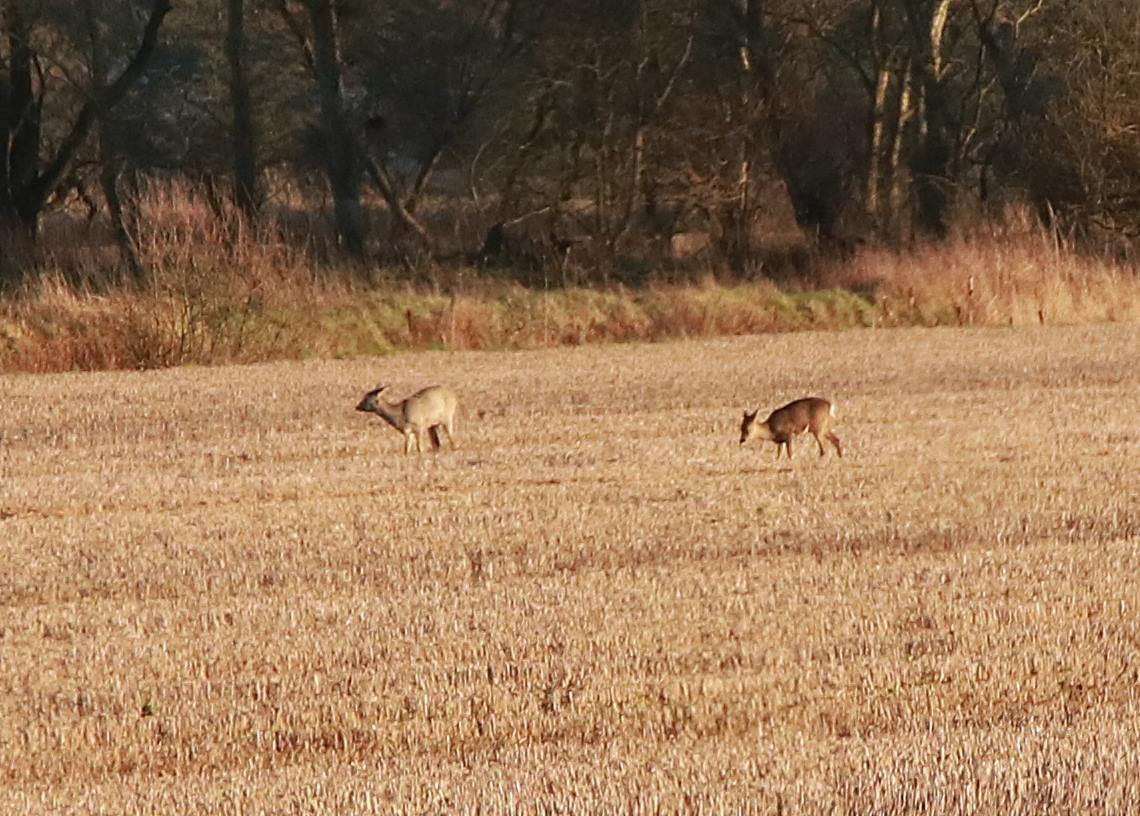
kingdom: Animalia
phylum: Chordata
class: Mammalia
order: Artiodactyla
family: Cervidae
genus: Capreolus
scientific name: Capreolus capreolus
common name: Rådyr
